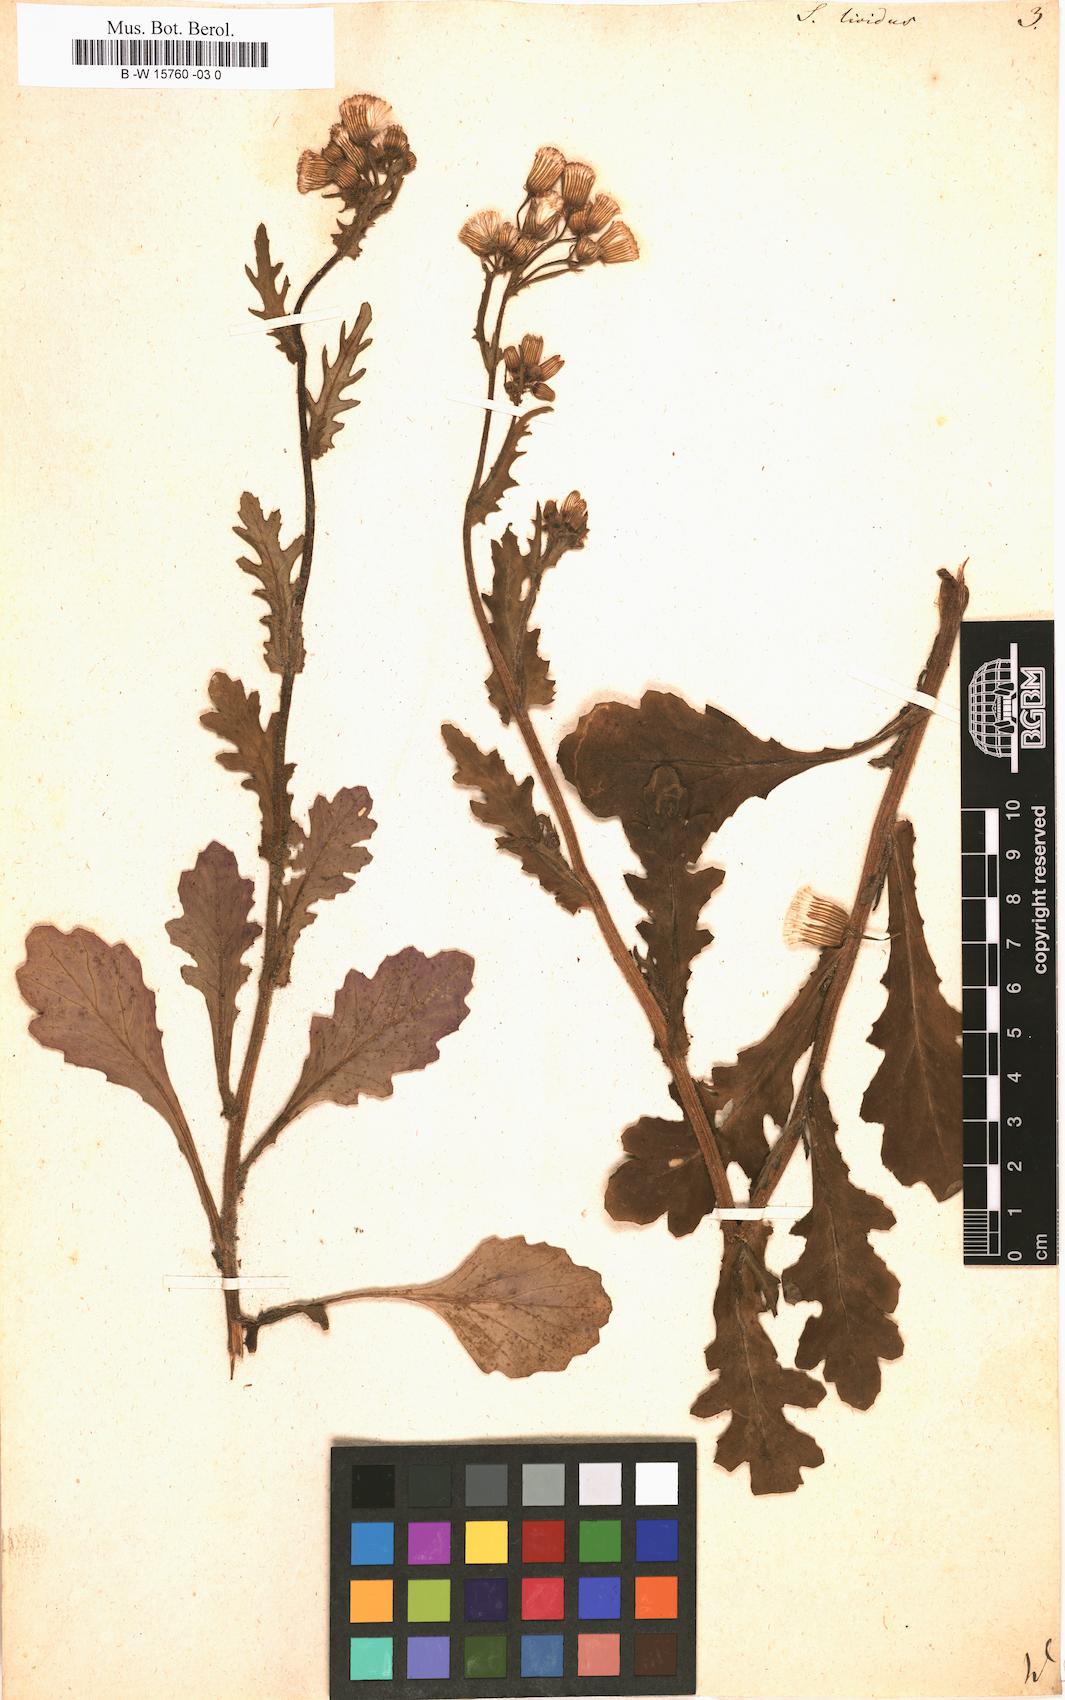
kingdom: Plantae
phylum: Tracheophyta
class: Magnoliopsida
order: Asterales
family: Asteraceae
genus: Senecio
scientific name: Senecio lividus
